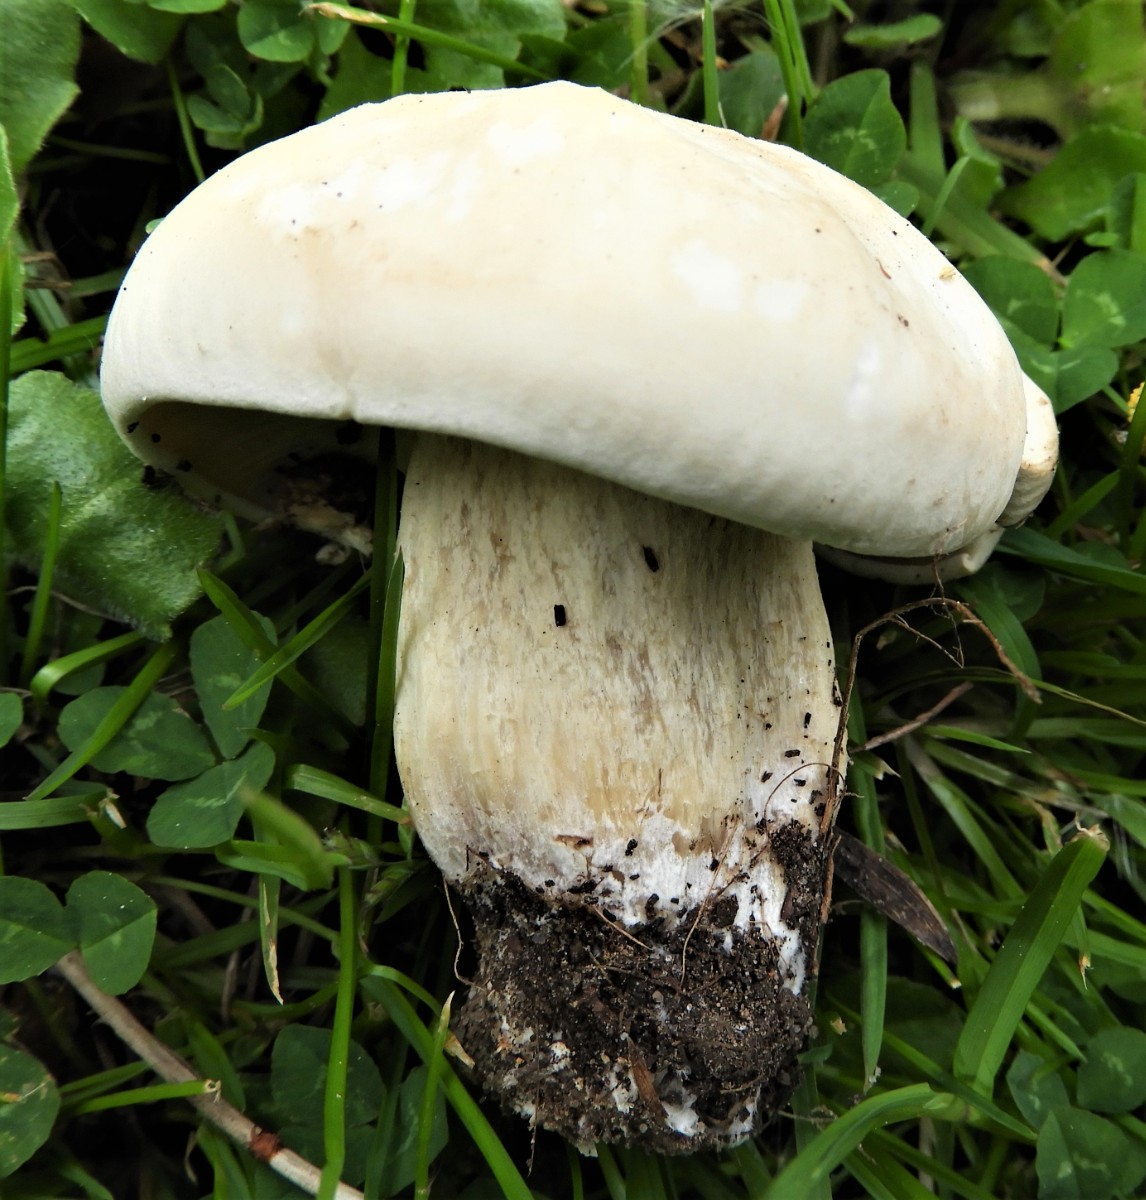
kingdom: Fungi
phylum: Basidiomycota
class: Agaricomycetes
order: Agaricales
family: Lyophyllaceae
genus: Calocybe
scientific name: Calocybe gambosa
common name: vårmusseron
